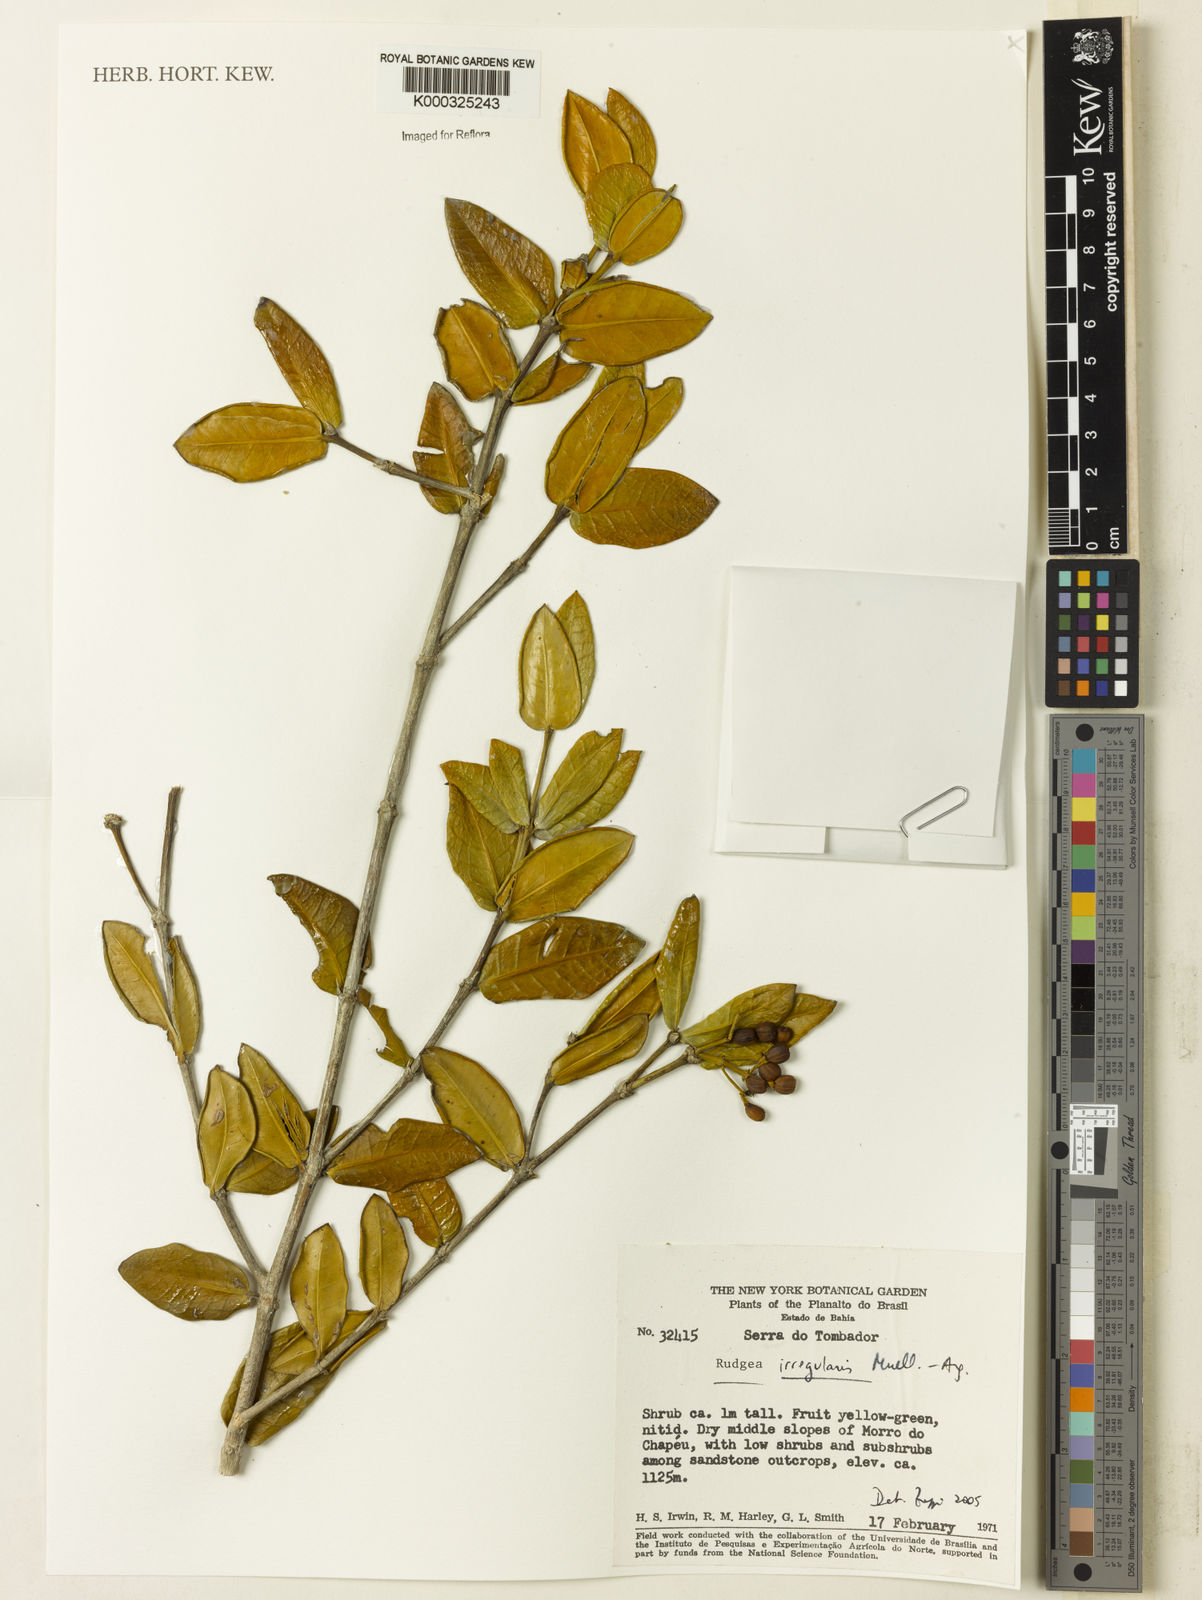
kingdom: Plantae
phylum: Tracheophyta
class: Magnoliopsida
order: Gentianales
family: Rubiaceae
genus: Rudgea
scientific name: Rudgea irregularis
